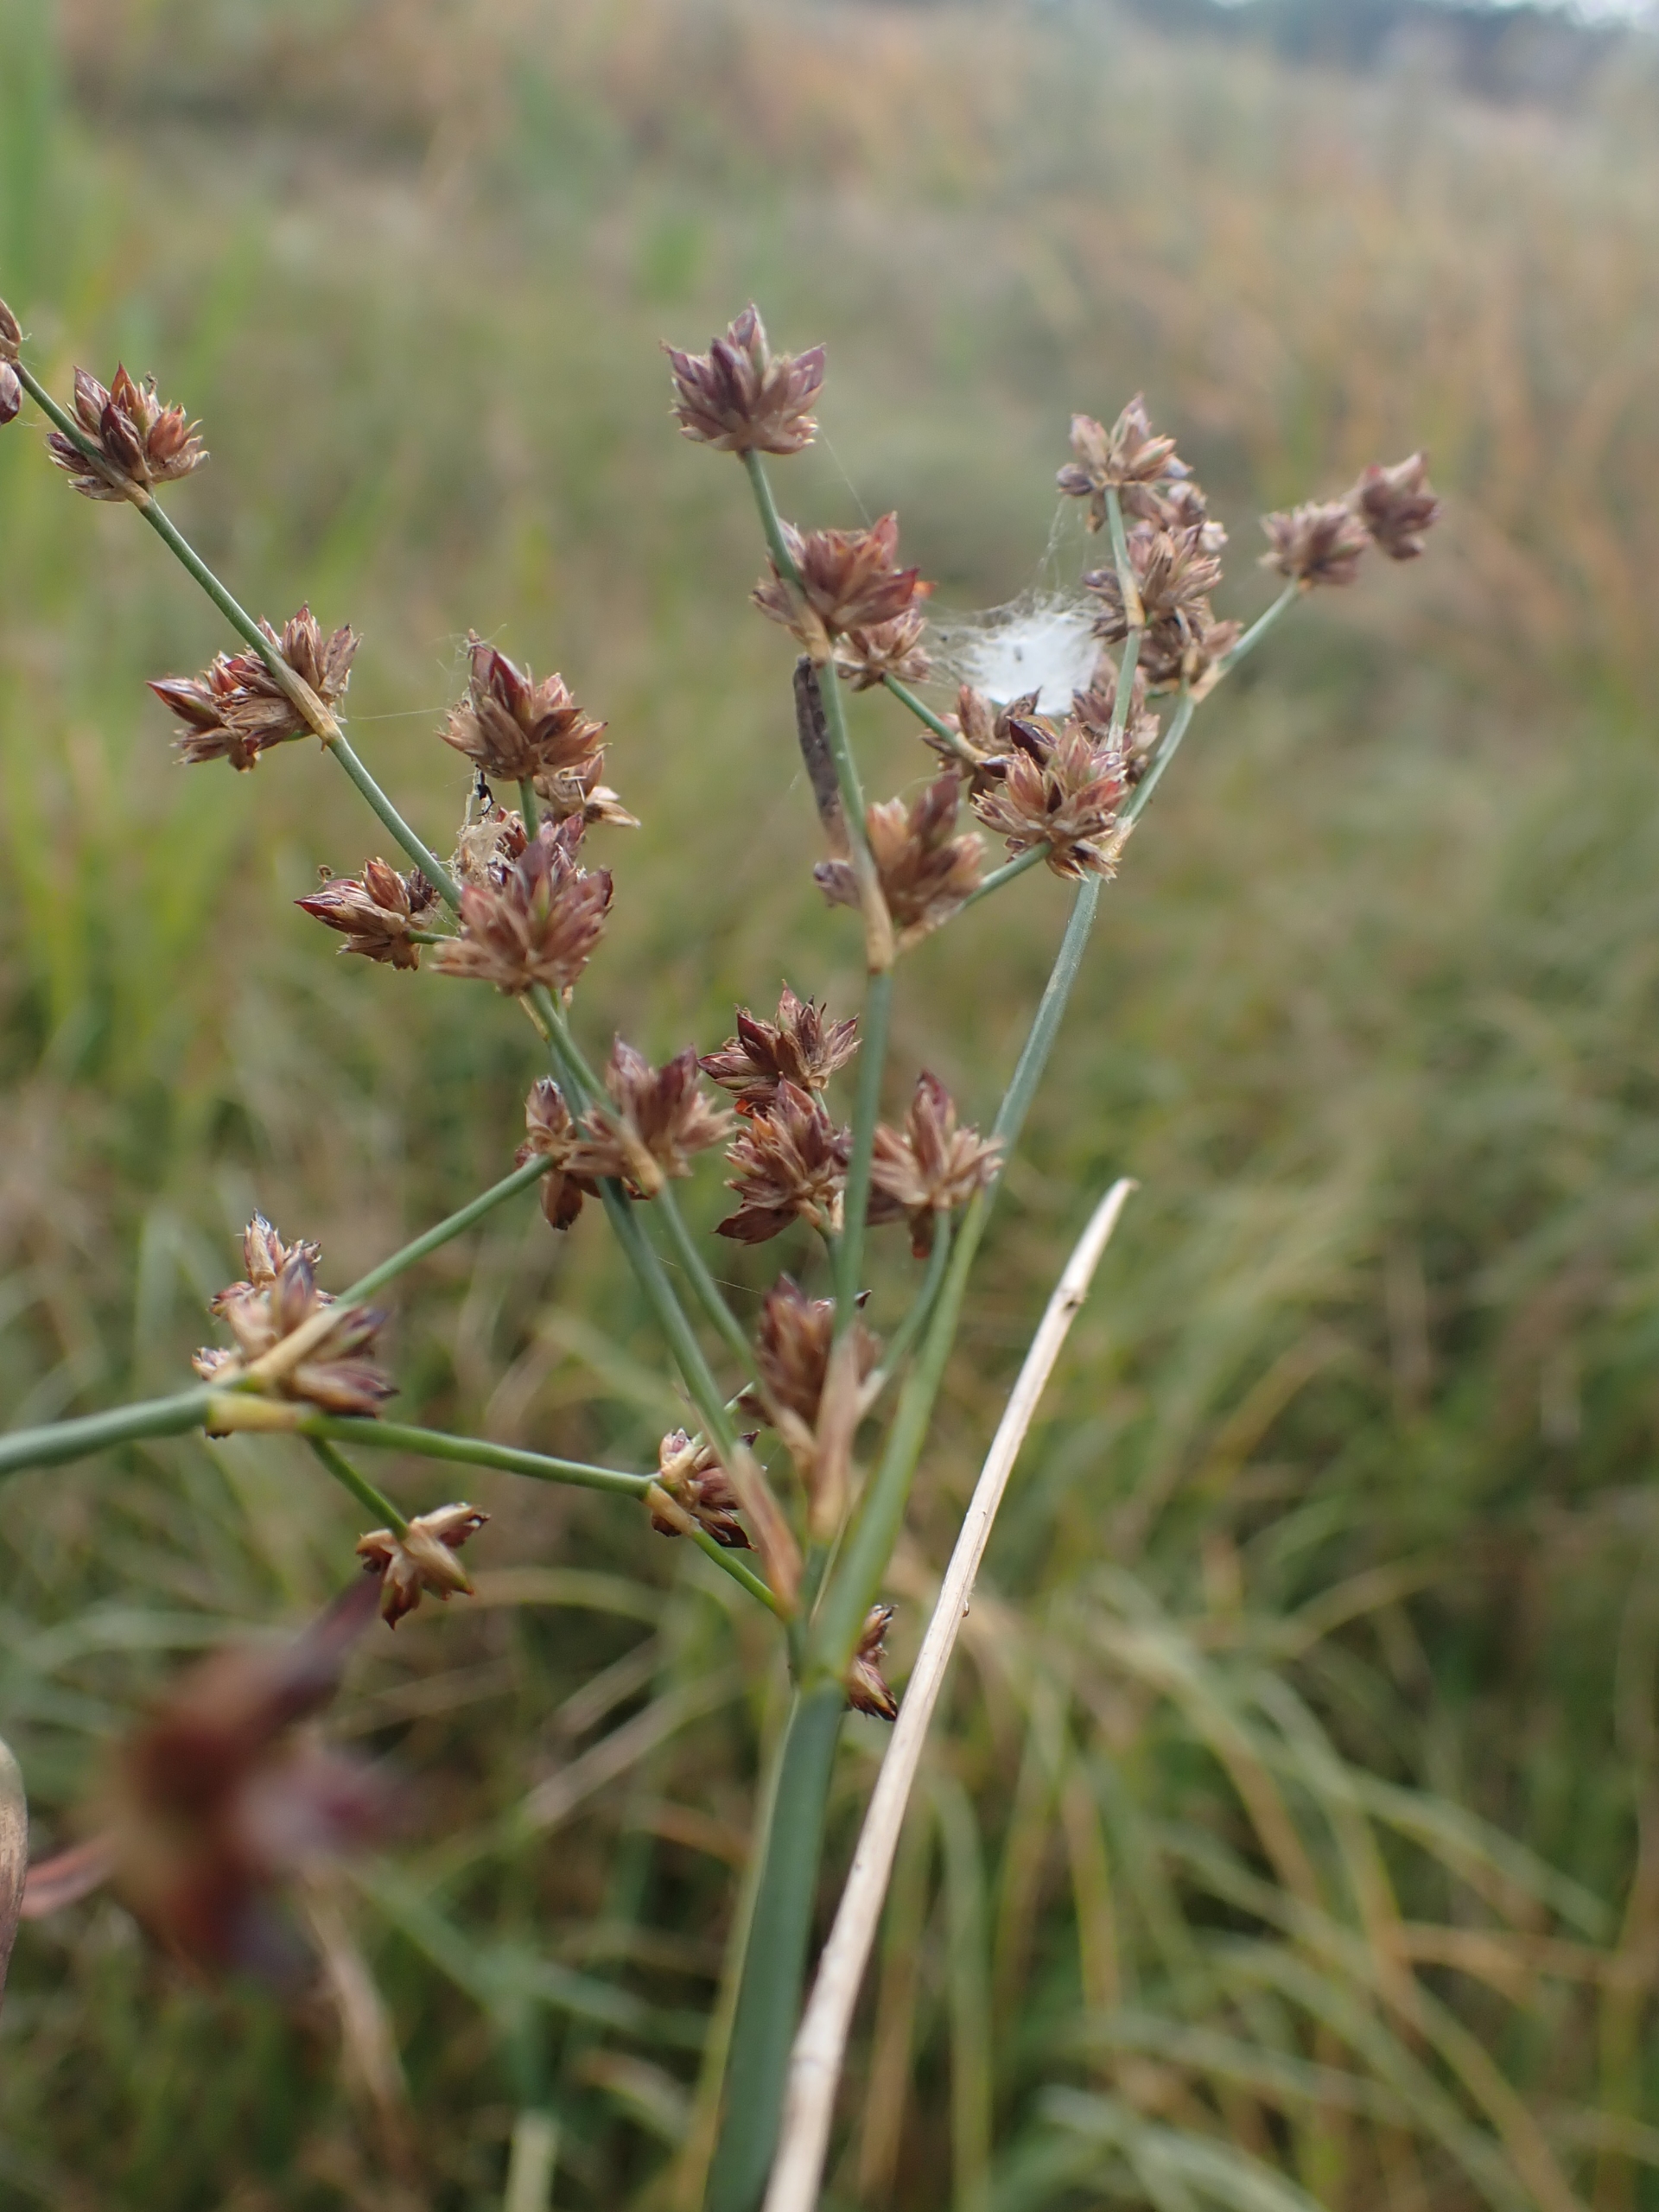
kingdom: Plantae
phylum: Tracheophyta
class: Liliopsida
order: Poales
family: Juncaceae
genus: Juncus
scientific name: Juncus articulatus
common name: Glanskapslet siv
